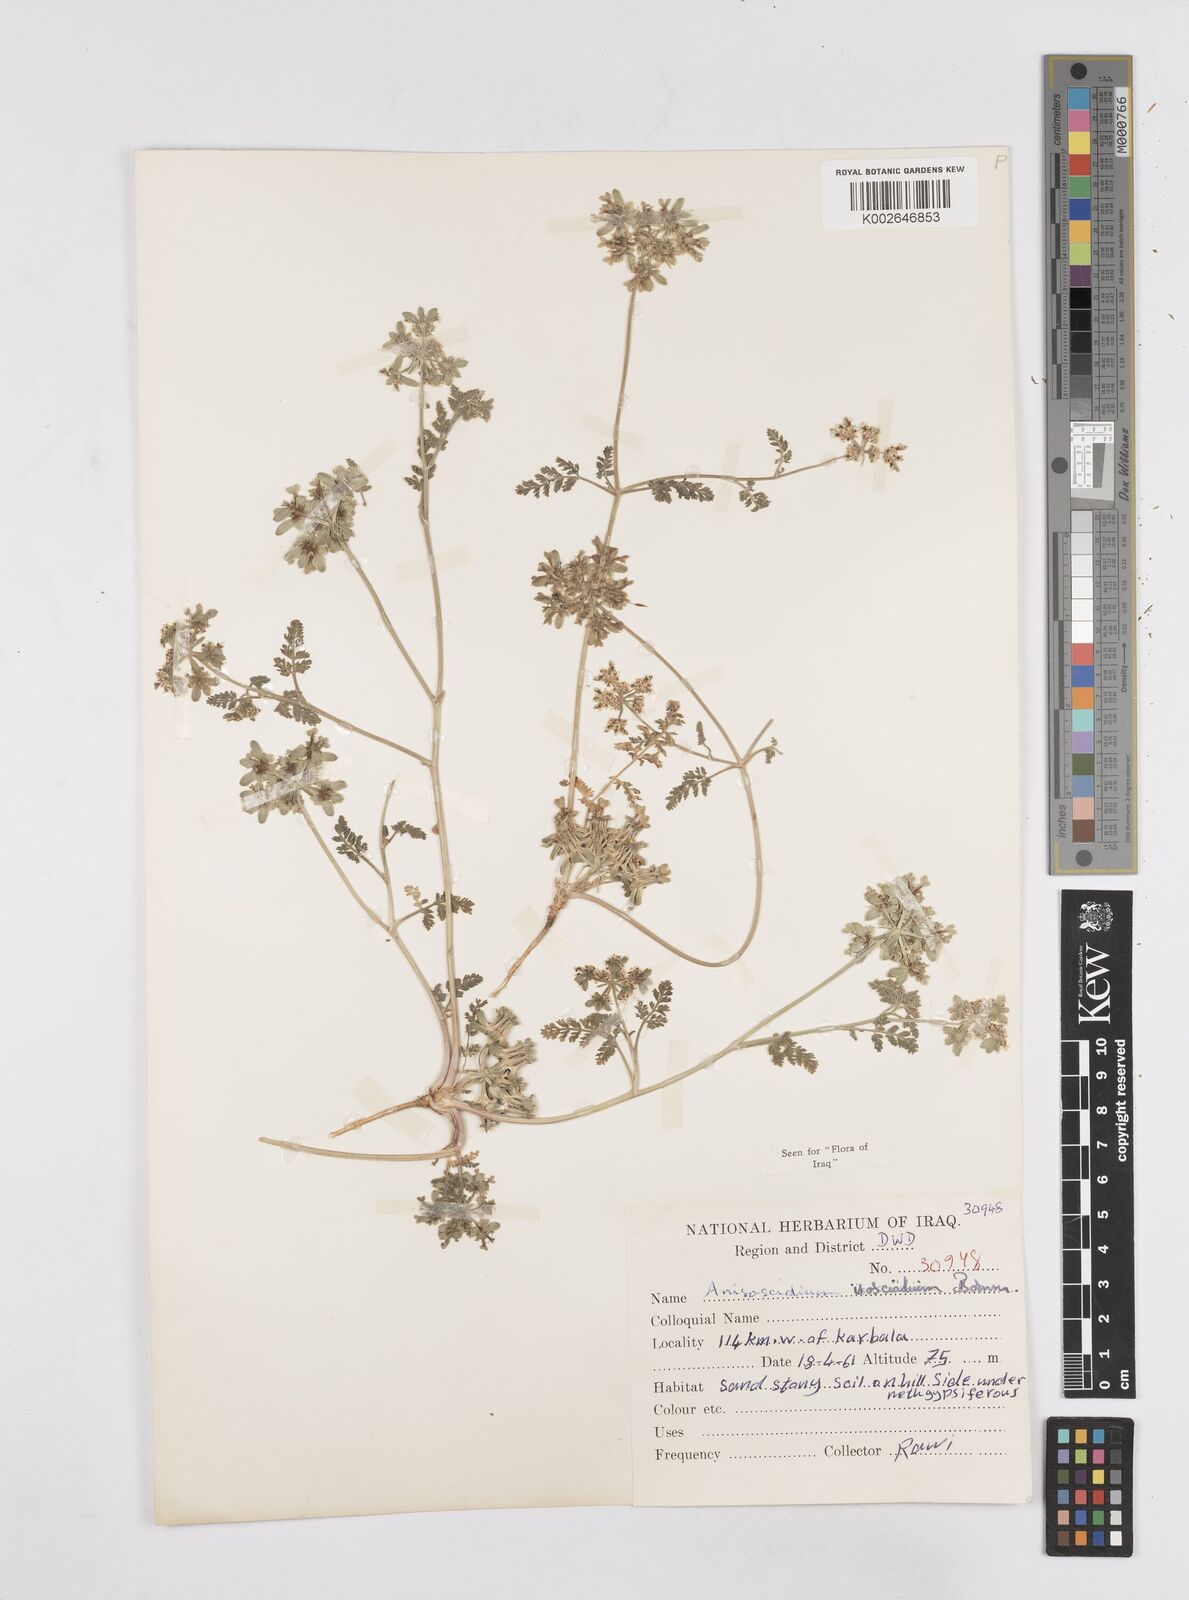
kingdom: Plantae
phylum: Tracheophyta
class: Magnoliopsida
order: Apiales
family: Apiaceae
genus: Anisosciadium
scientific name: Anisosciadium isosciadium
